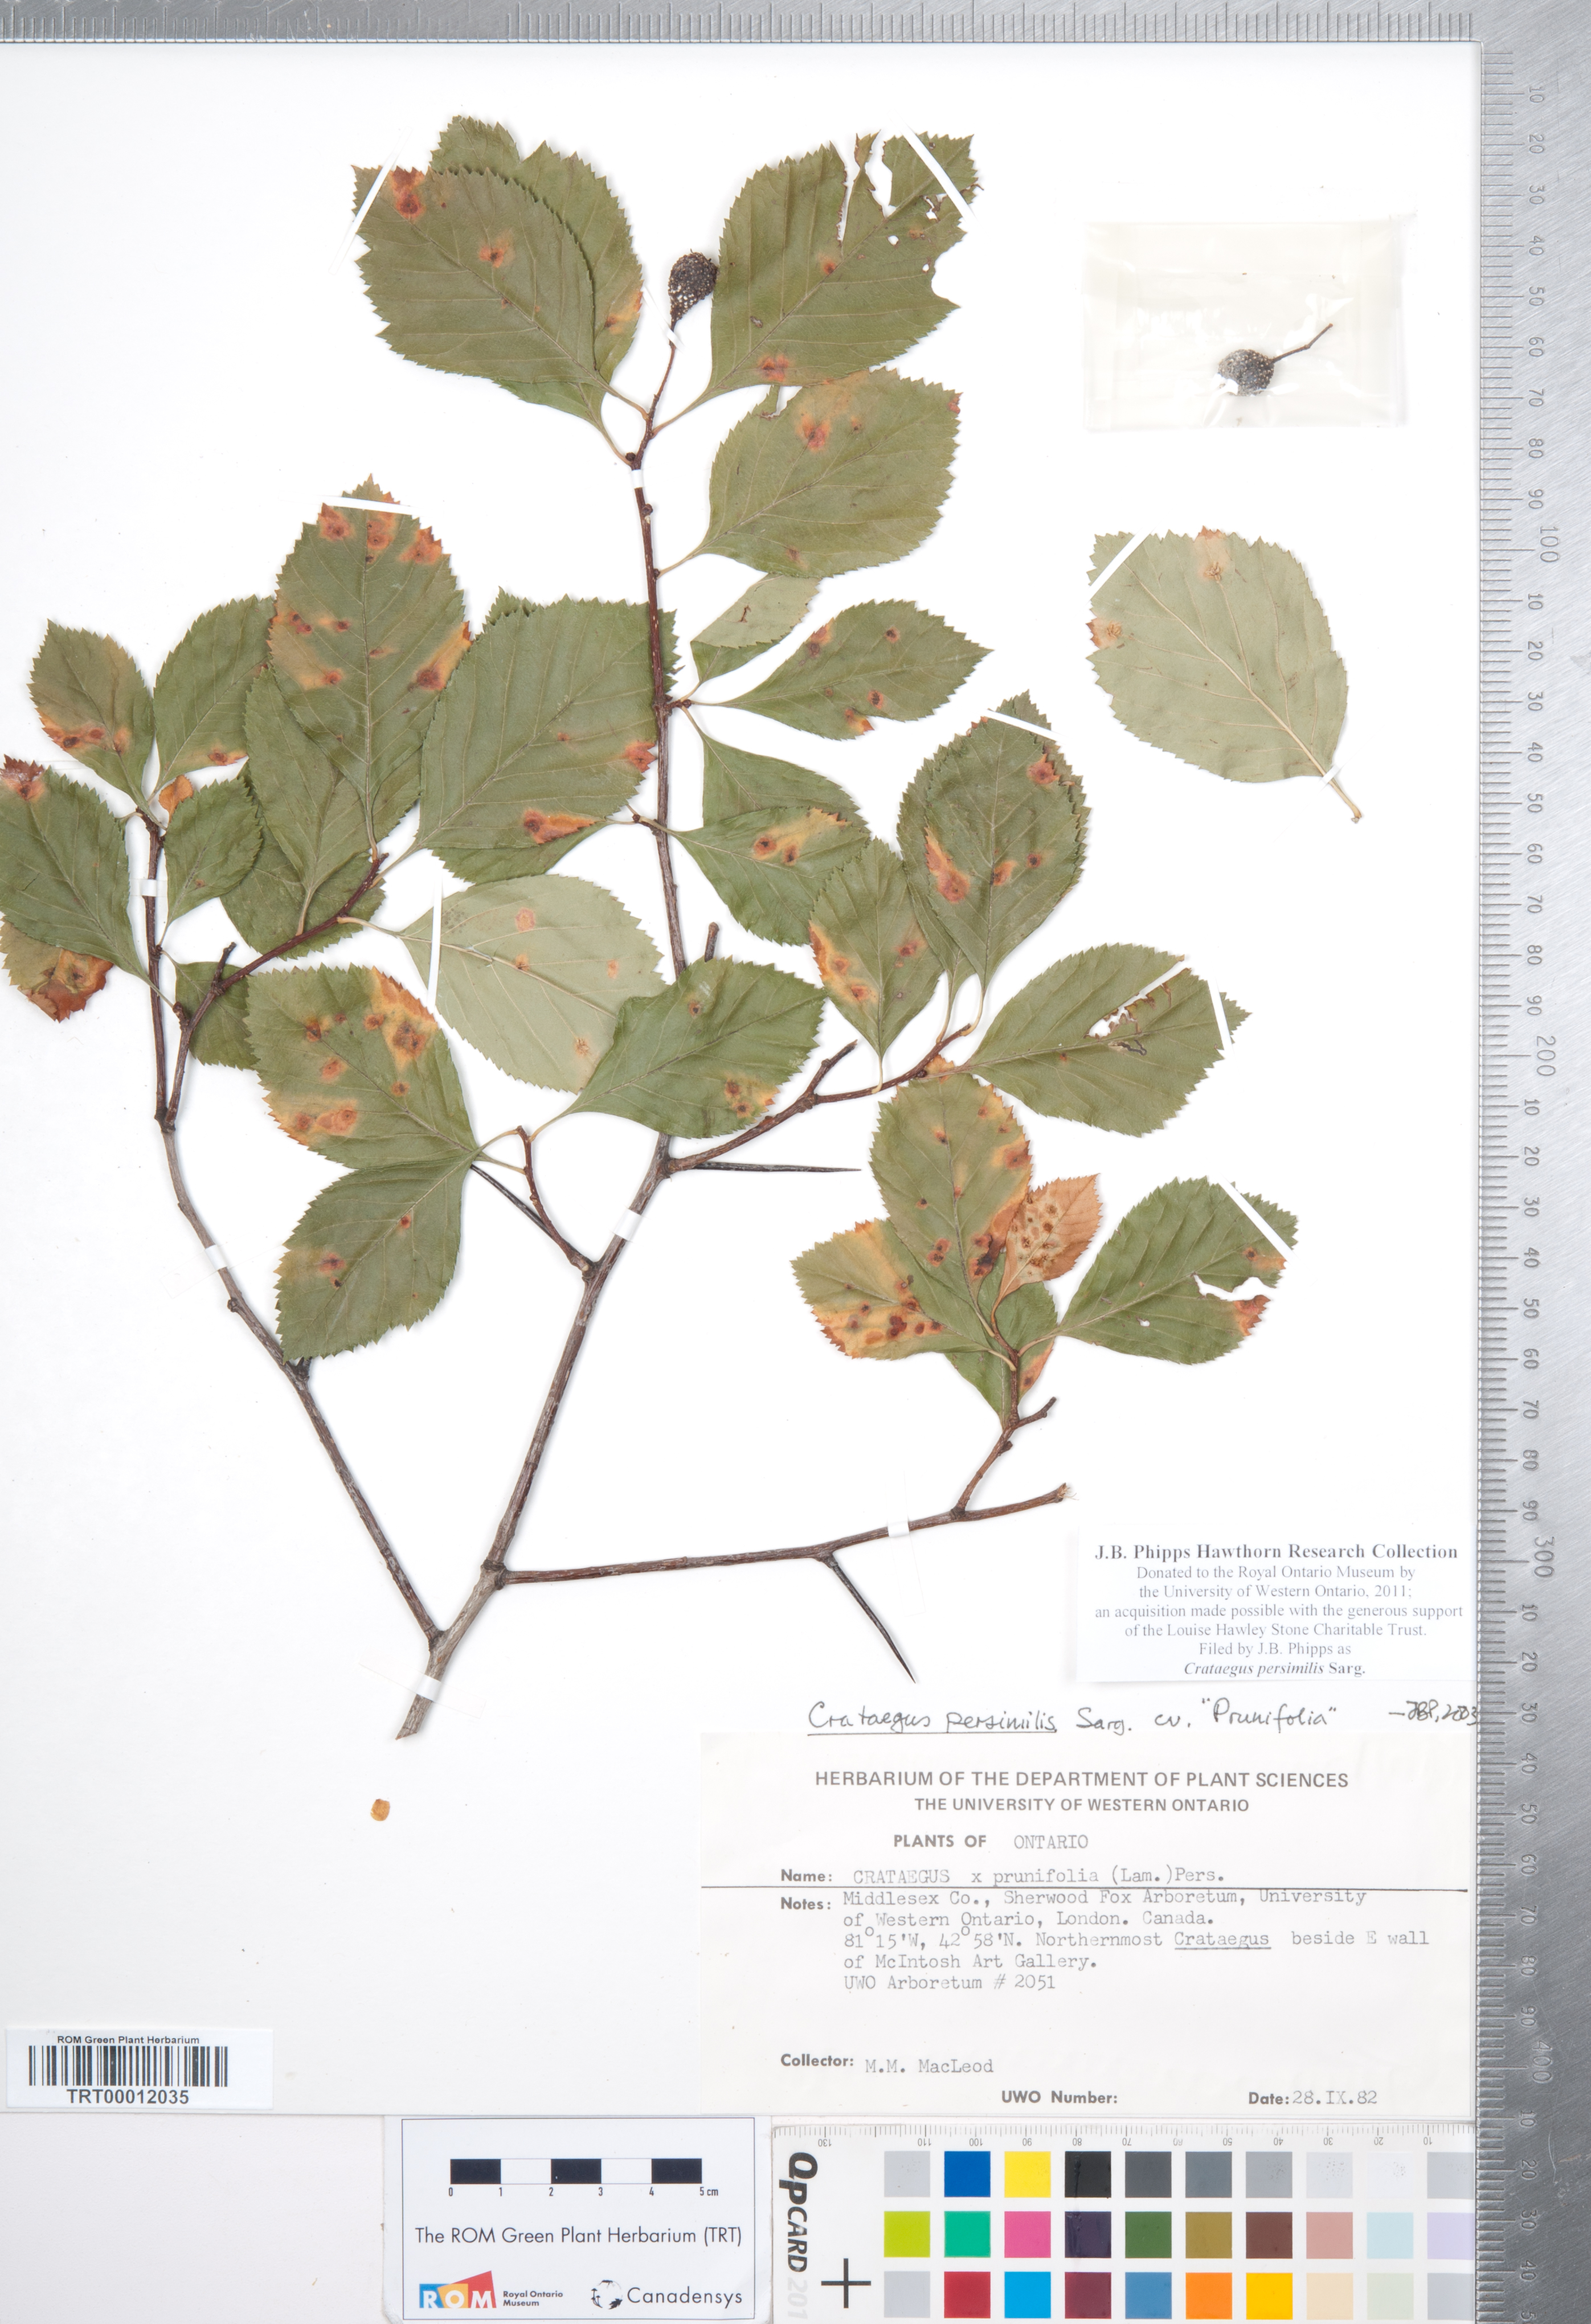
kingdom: Plantae
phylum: Tracheophyta
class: Magnoliopsida
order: Rosales
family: Rosaceae
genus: Crataegus
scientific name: Crataegus persimilis
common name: Broad-leaved cockspurthorn
